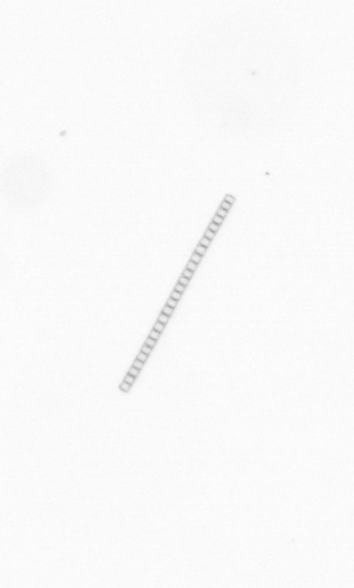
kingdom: Chromista
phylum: Ochrophyta
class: Bacillariophyceae
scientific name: Bacillariophyceae
